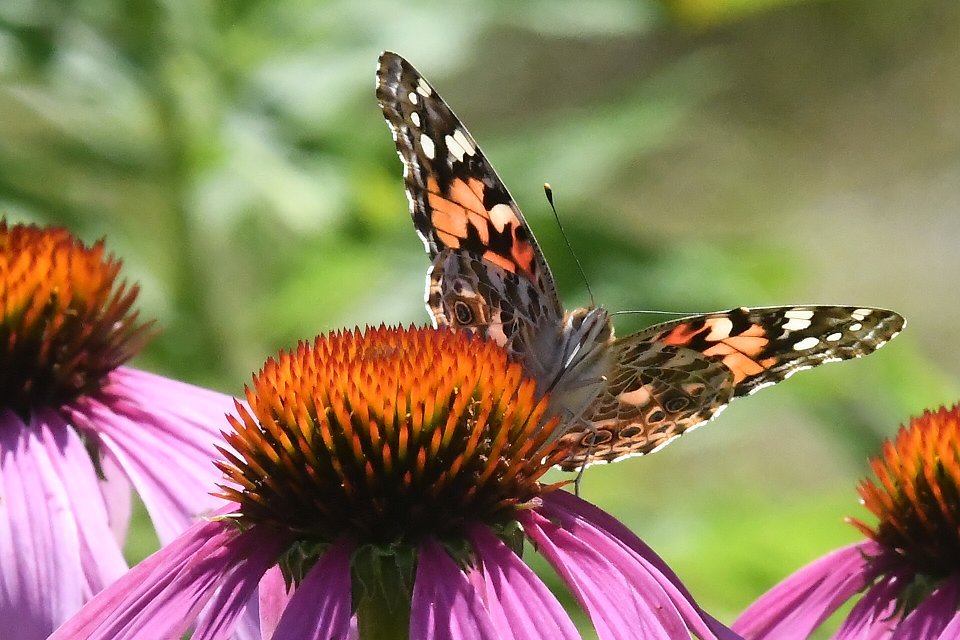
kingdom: Animalia
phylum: Arthropoda
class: Insecta
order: Lepidoptera
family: Nymphalidae
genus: Vanessa
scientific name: Vanessa cardui
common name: Painted Lady
